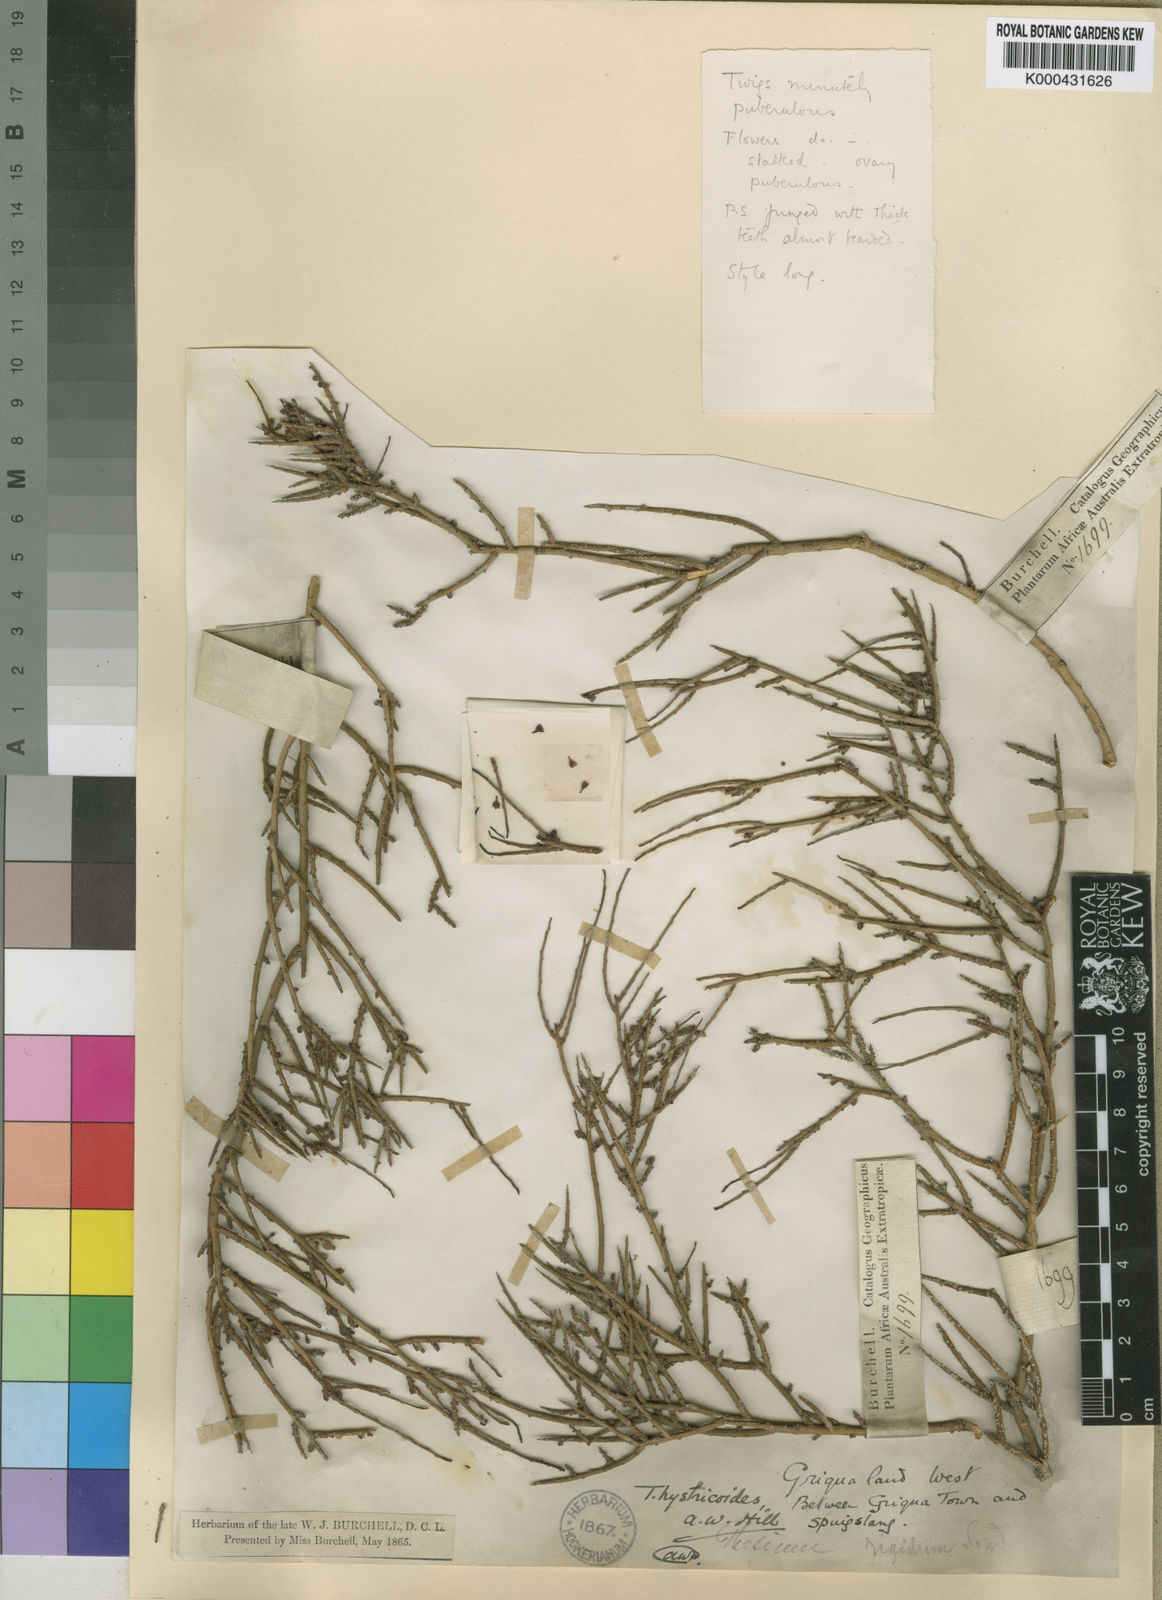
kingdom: Plantae
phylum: Tracheophyta
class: Magnoliopsida
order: Santalales
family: Thesiaceae
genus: Thesium
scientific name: Thesium hystricoides
